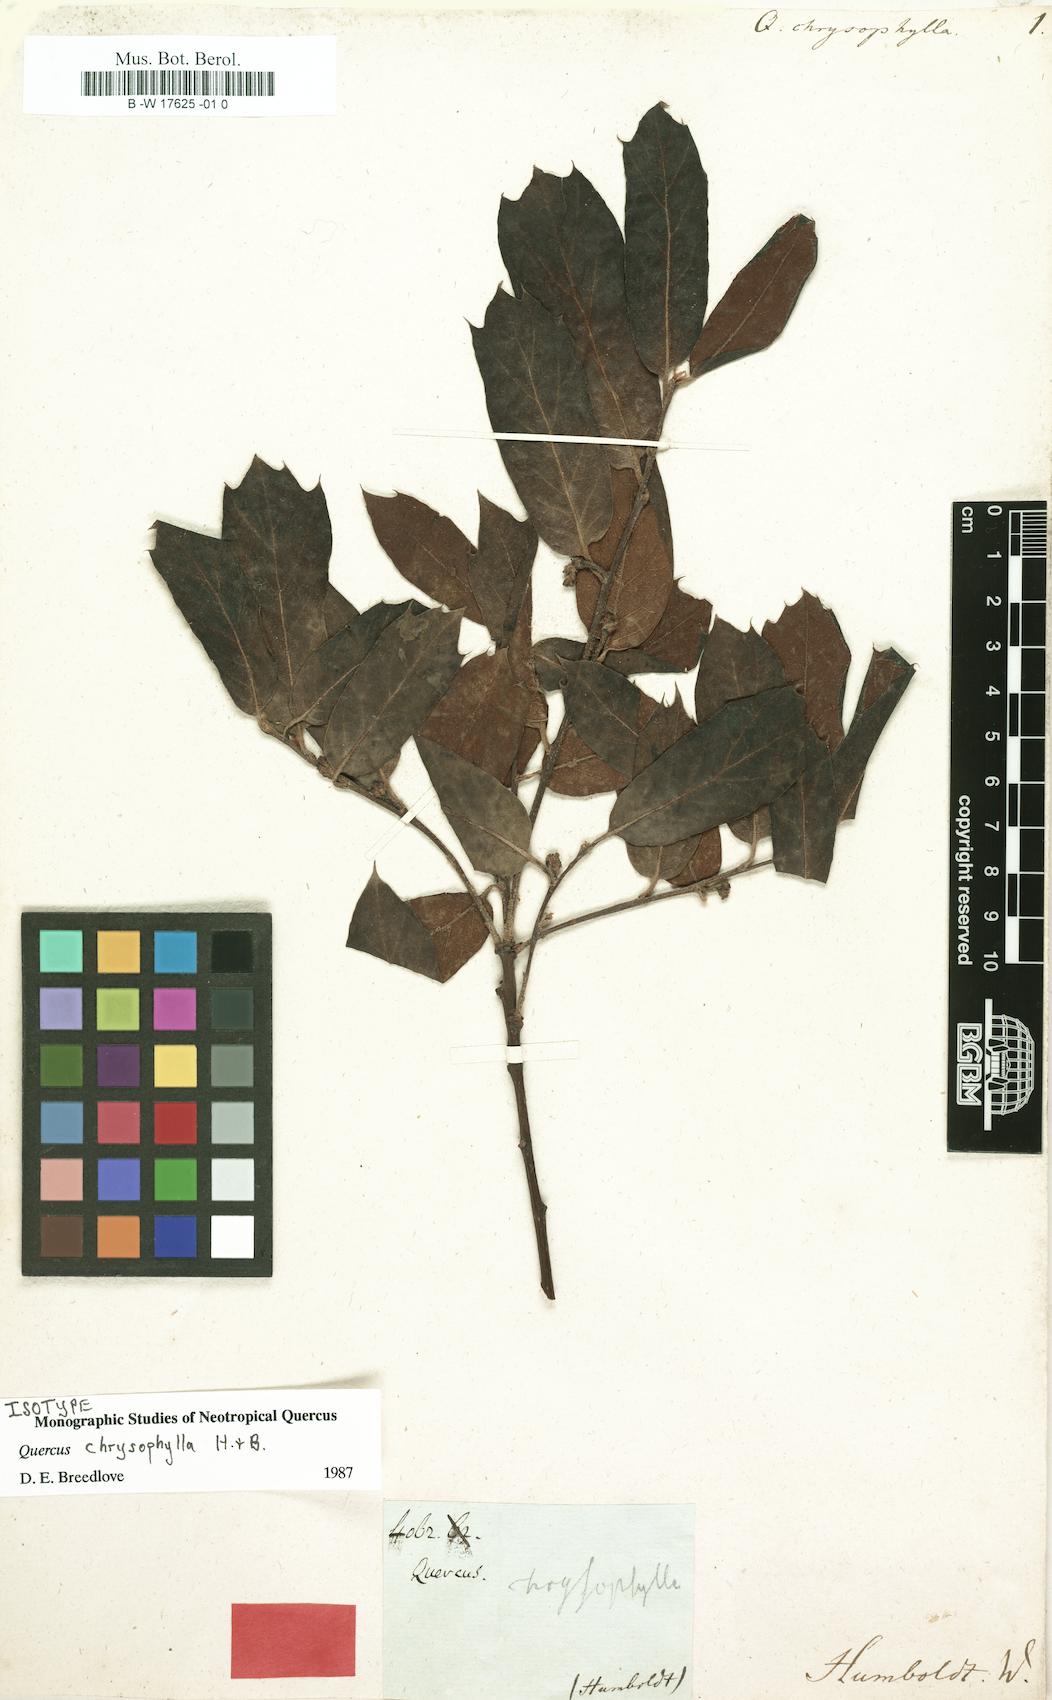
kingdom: Plantae
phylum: Tracheophyta
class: Magnoliopsida
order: Fagales
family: Fagaceae
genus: Quercus
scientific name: Quercus laurina
